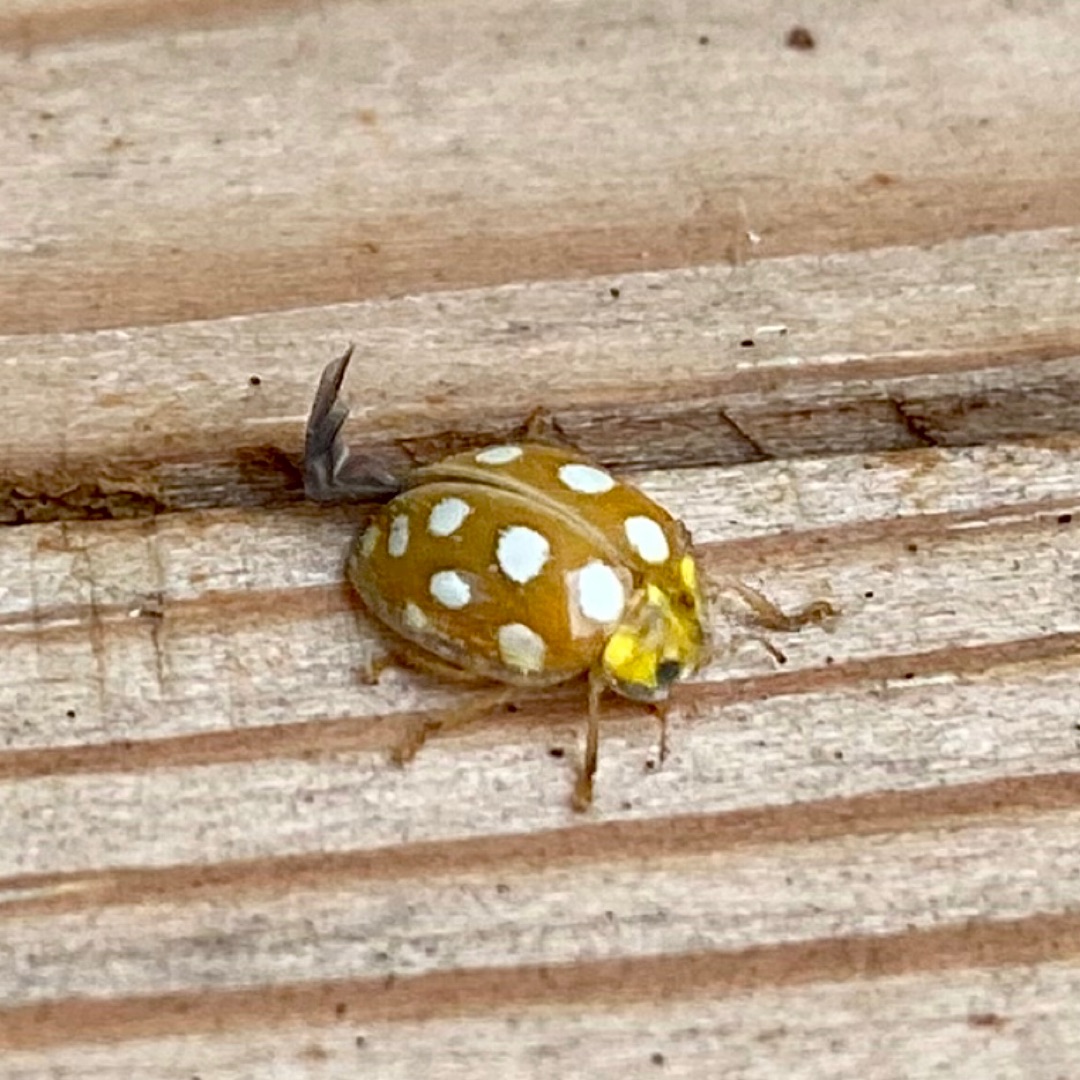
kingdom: Animalia
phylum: Arthropoda
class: Insecta
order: Coleoptera
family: Coccinellidae
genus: Halyzia
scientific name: Halyzia sedecimguttata
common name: Sekstenplettet mariehøne
